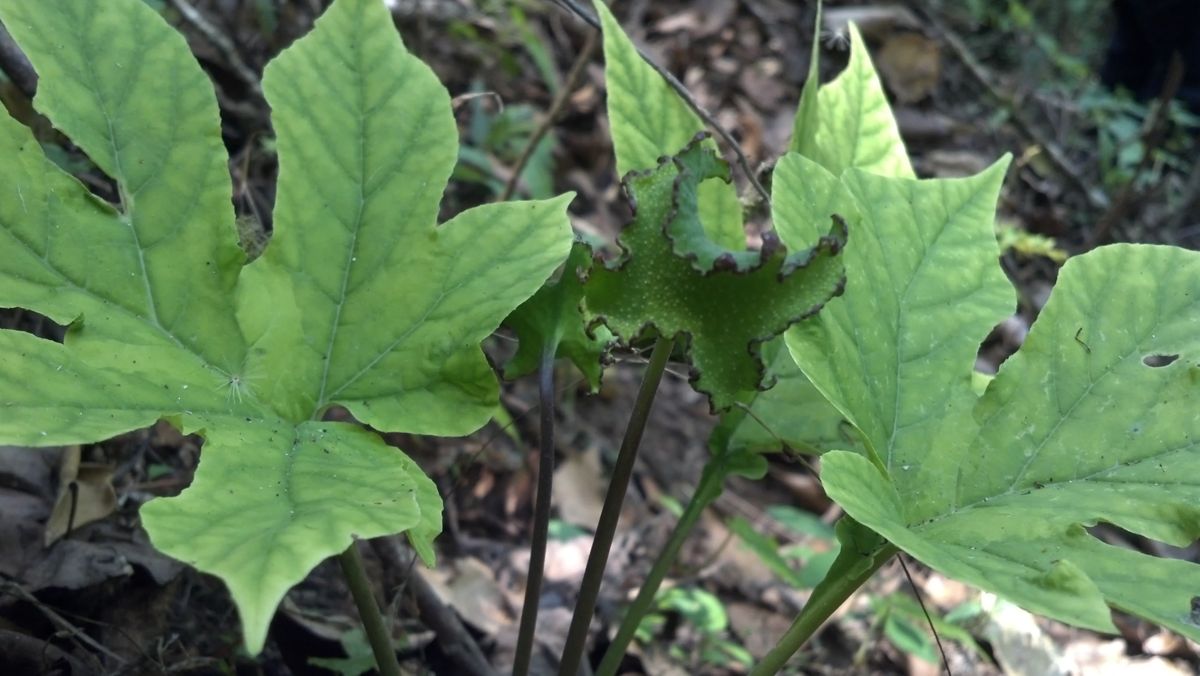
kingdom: Plantae
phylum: Tracheophyta
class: Magnoliopsida
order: Rosales
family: Moraceae
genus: Dorstenia
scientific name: Dorstenia contrajerva
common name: Tusilla
